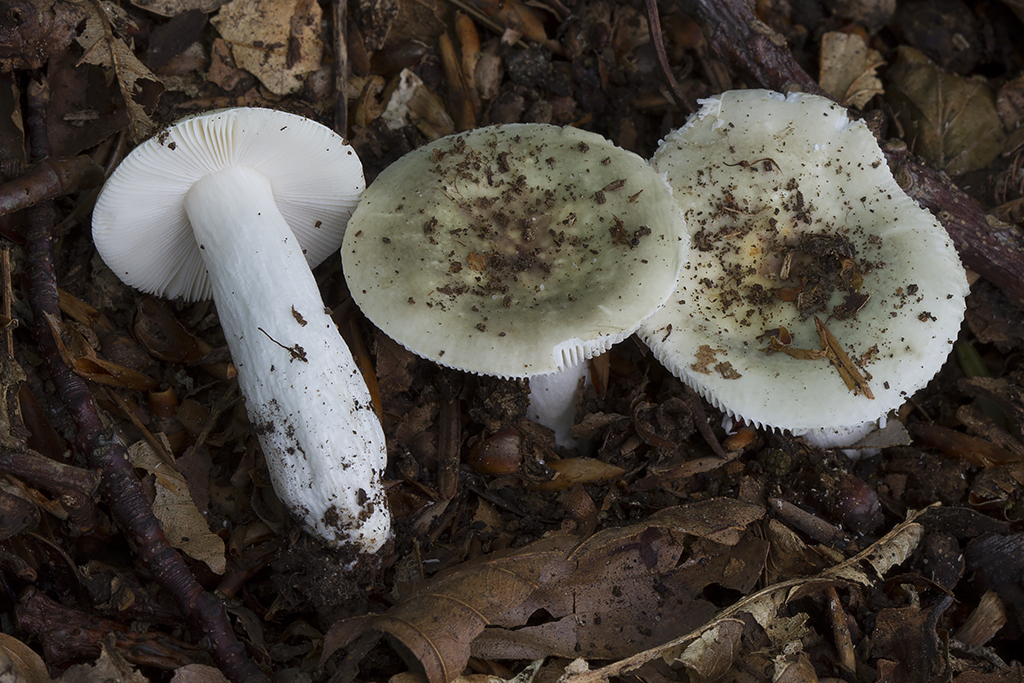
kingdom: Fungi
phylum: Basidiomycota
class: Agaricomycetes
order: Russulales
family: Russulaceae
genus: Russula
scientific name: Russula fragilis
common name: savbladet skørhat
